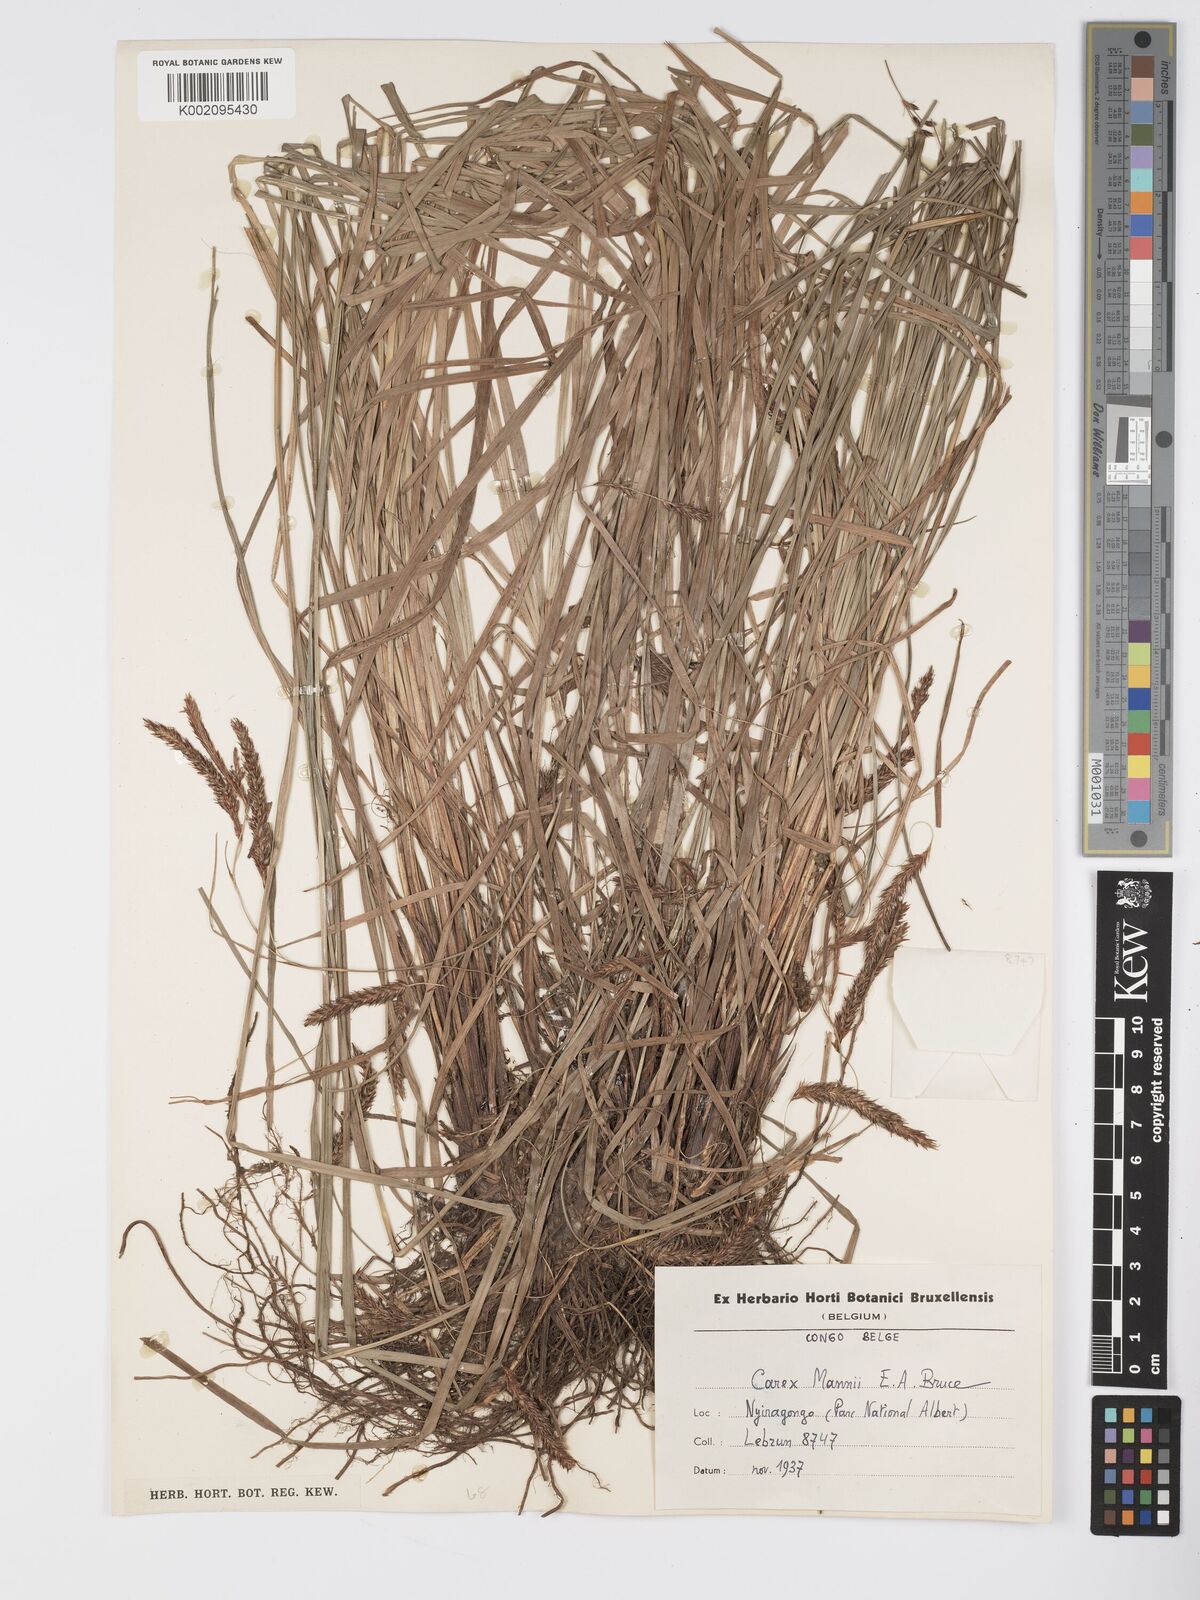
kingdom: Plantae
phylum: Tracheophyta
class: Liliopsida
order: Poales
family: Cyperaceae
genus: Carex
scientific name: Carex fischeri
